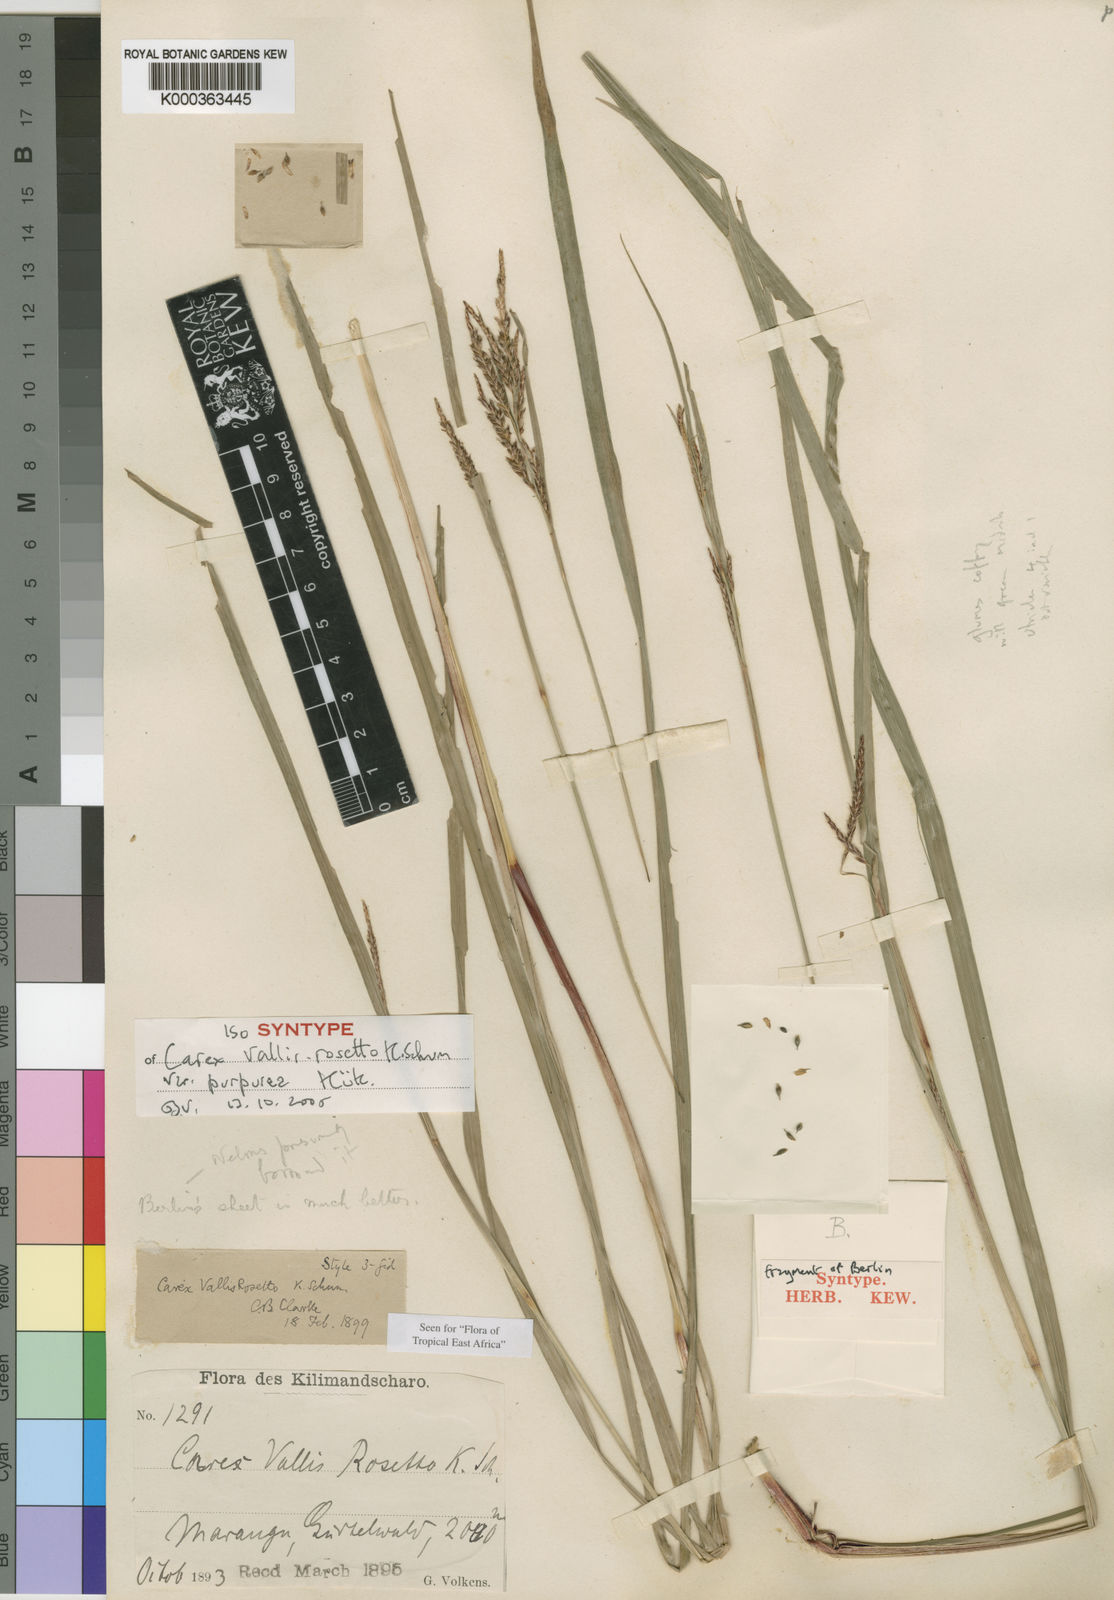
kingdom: Plantae
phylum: Tracheophyta
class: Liliopsida
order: Poales
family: Cyperaceae
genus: Carex
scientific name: Carex vallis-rosetto
